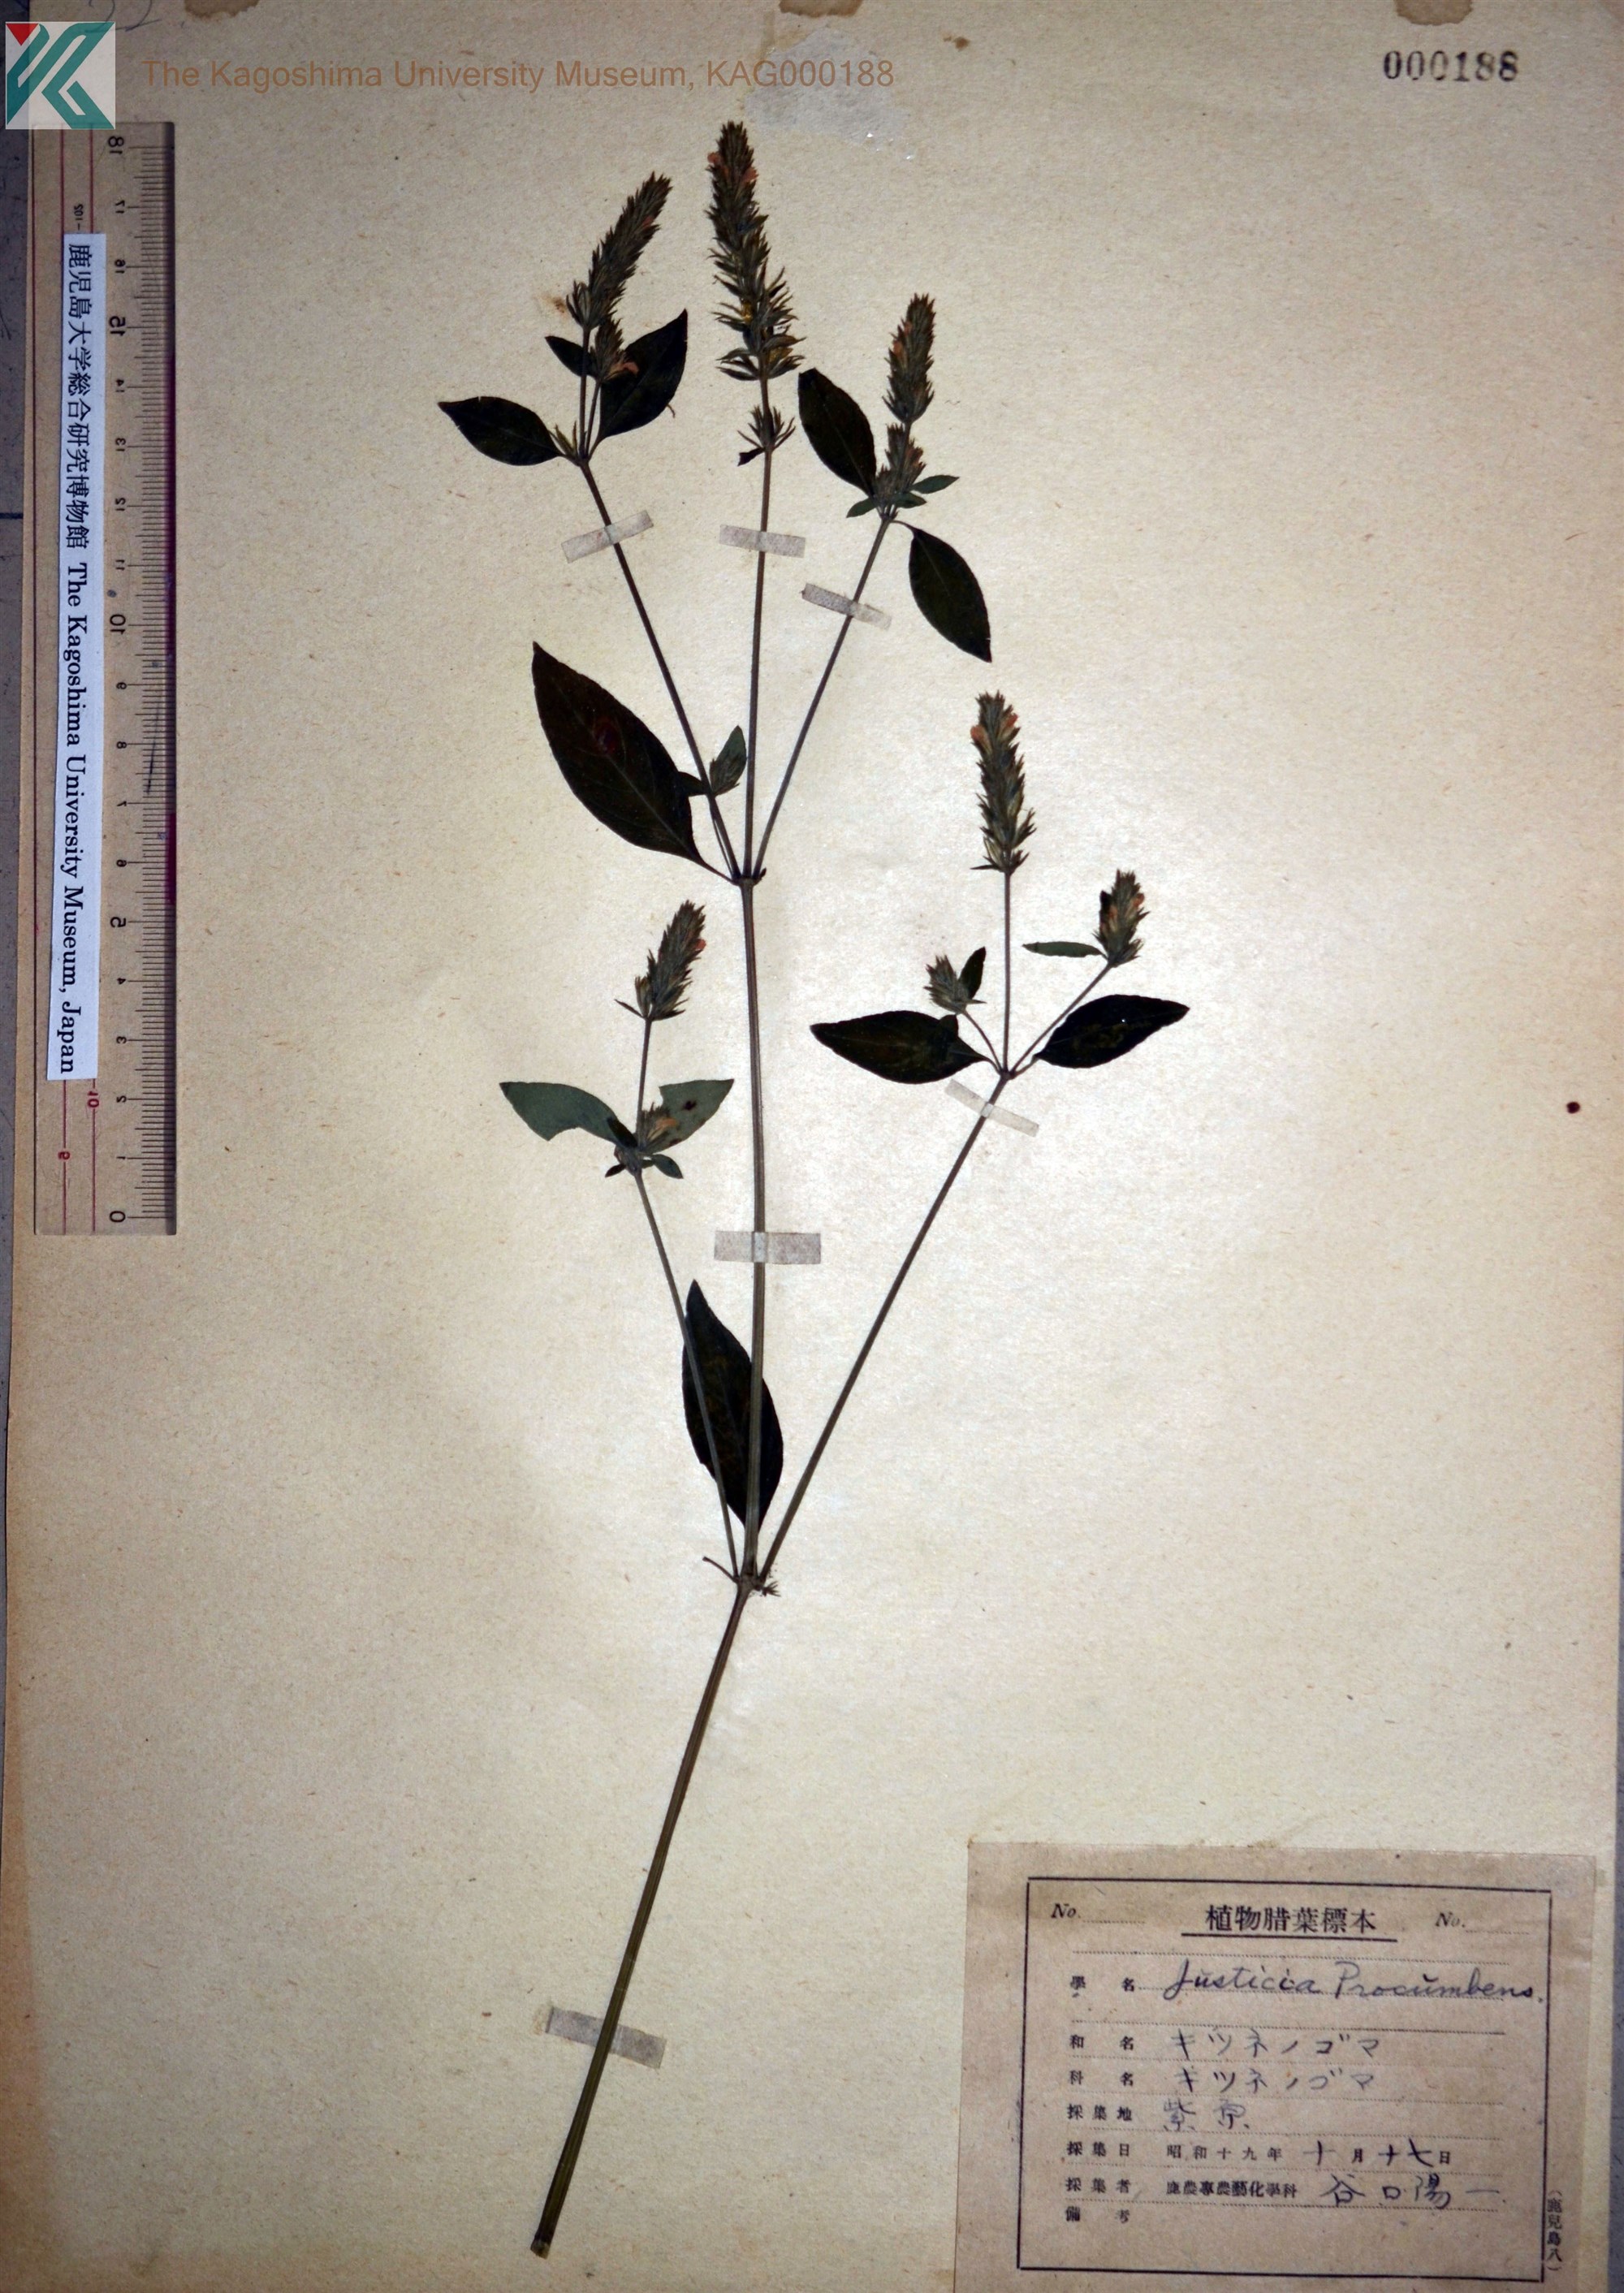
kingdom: Plantae
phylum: Tracheophyta
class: Magnoliopsida
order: Lamiales
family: Acanthaceae
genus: Rostellularia
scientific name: Rostellularia procumbens
